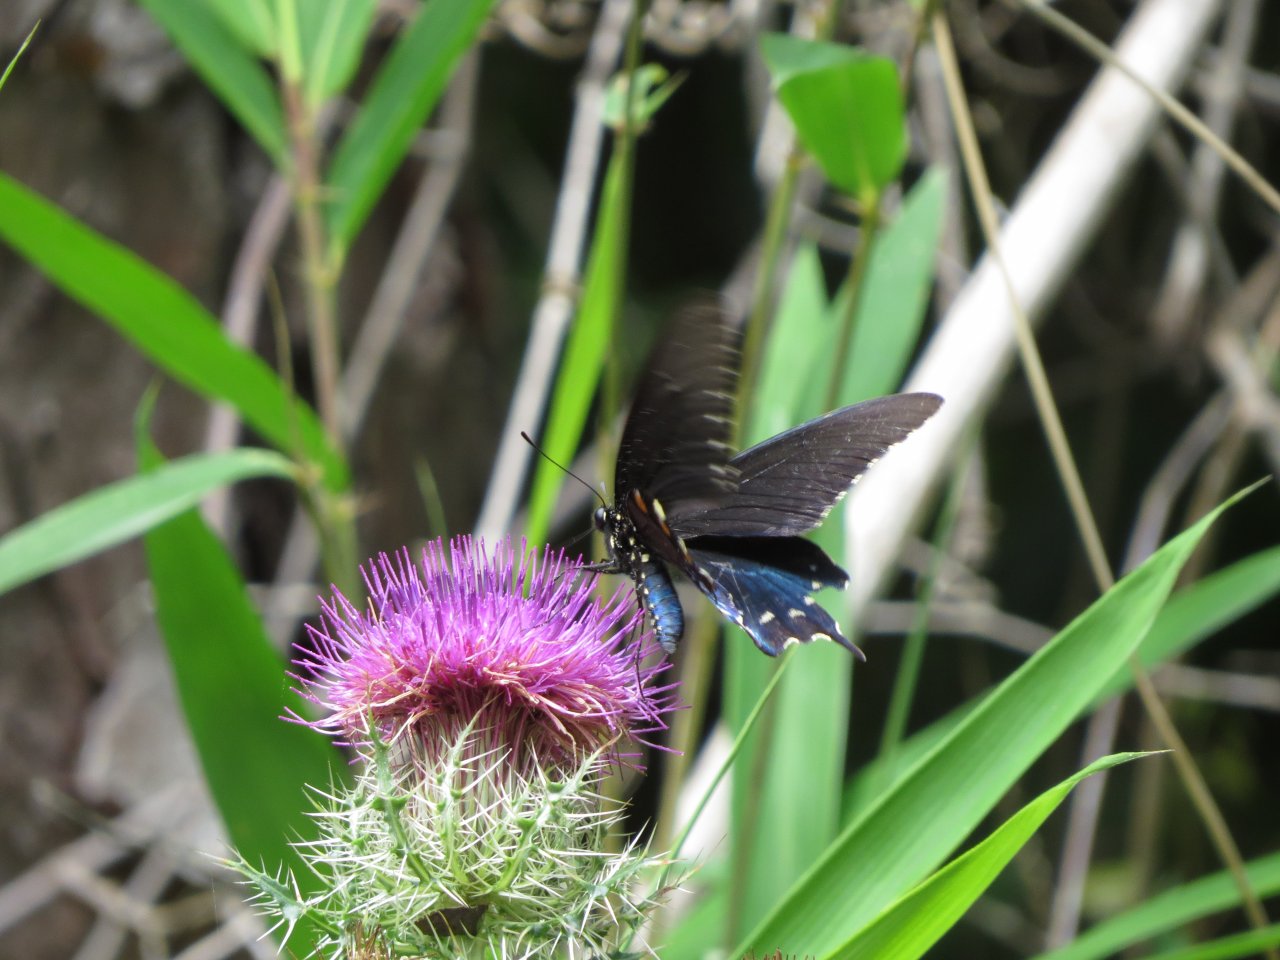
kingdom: Animalia
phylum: Arthropoda
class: Insecta
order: Lepidoptera
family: Papilionidae
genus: Battus
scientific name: Battus philenor
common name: Pipevine Swallowtail
